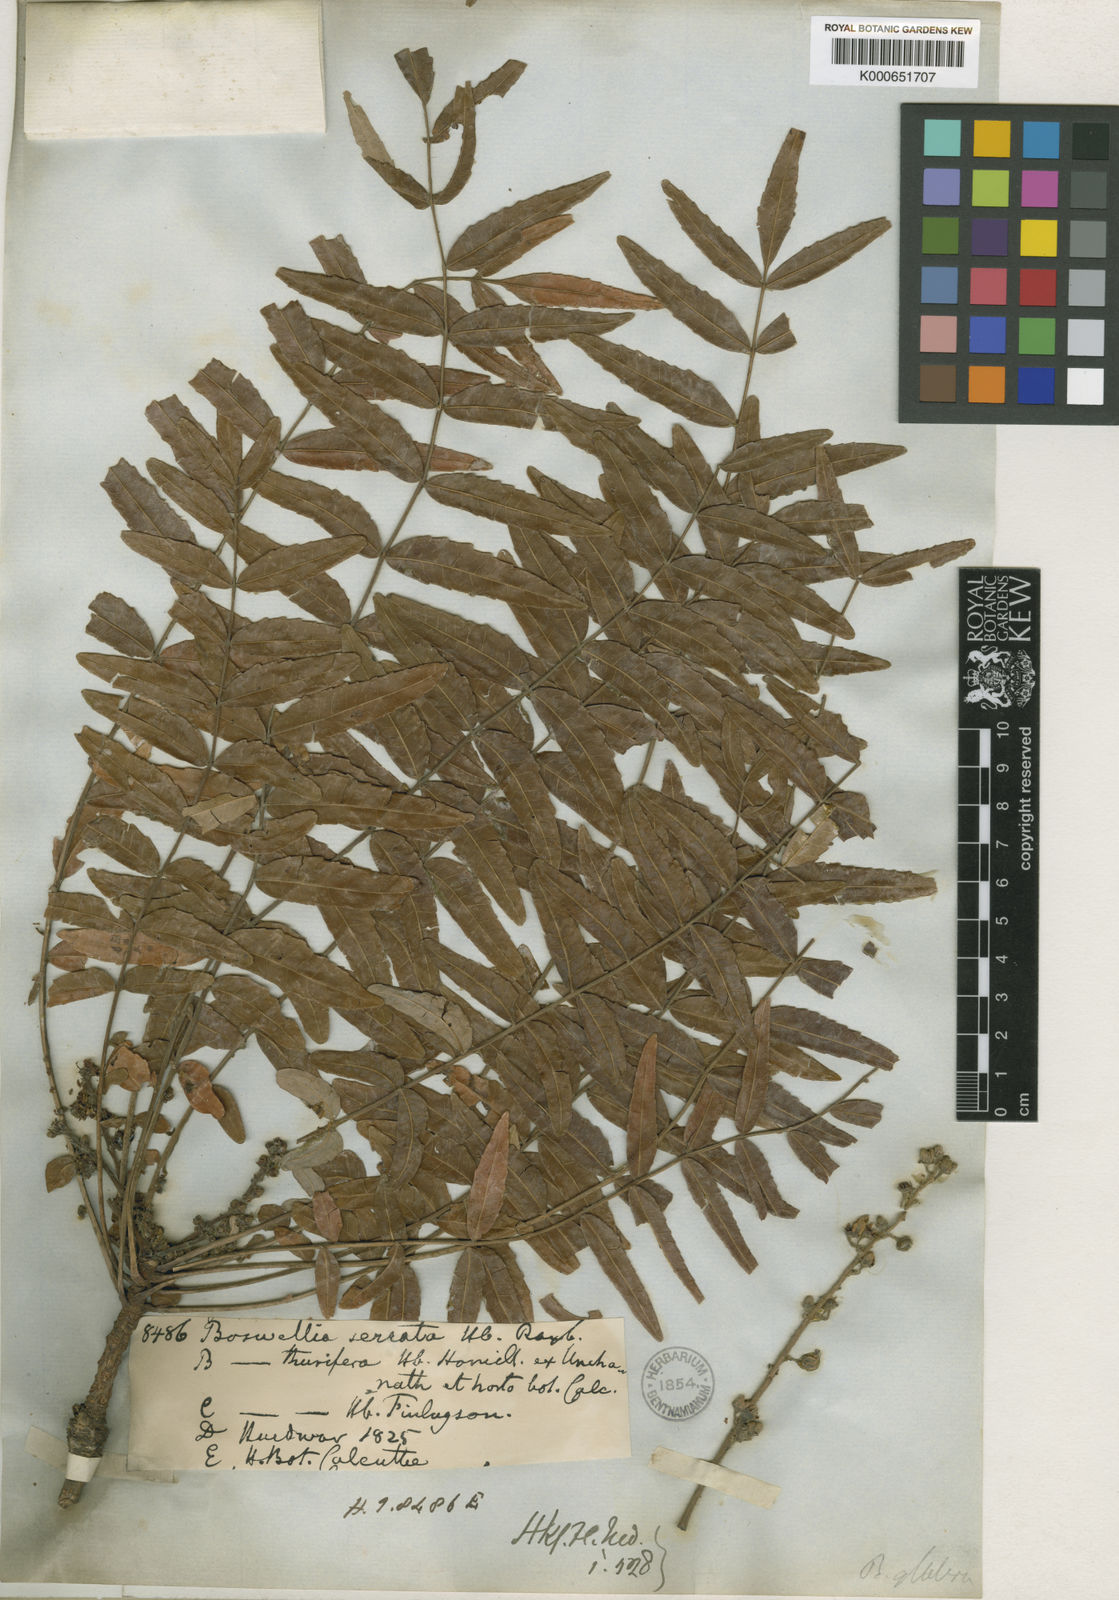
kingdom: Plantae
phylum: Tracheophyta
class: Magnoliopsida
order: Sapindales
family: Burseraceae
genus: Boswellia
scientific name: Boswellia serrata
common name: Boswellia
